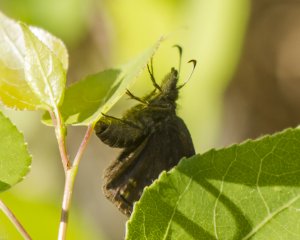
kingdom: Animalia
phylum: Arthropoda
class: Insecta
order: Lepidoptera
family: Hesperiidae
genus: Erynnis
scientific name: Erynnis icelus
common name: Dreamy Duskywing
